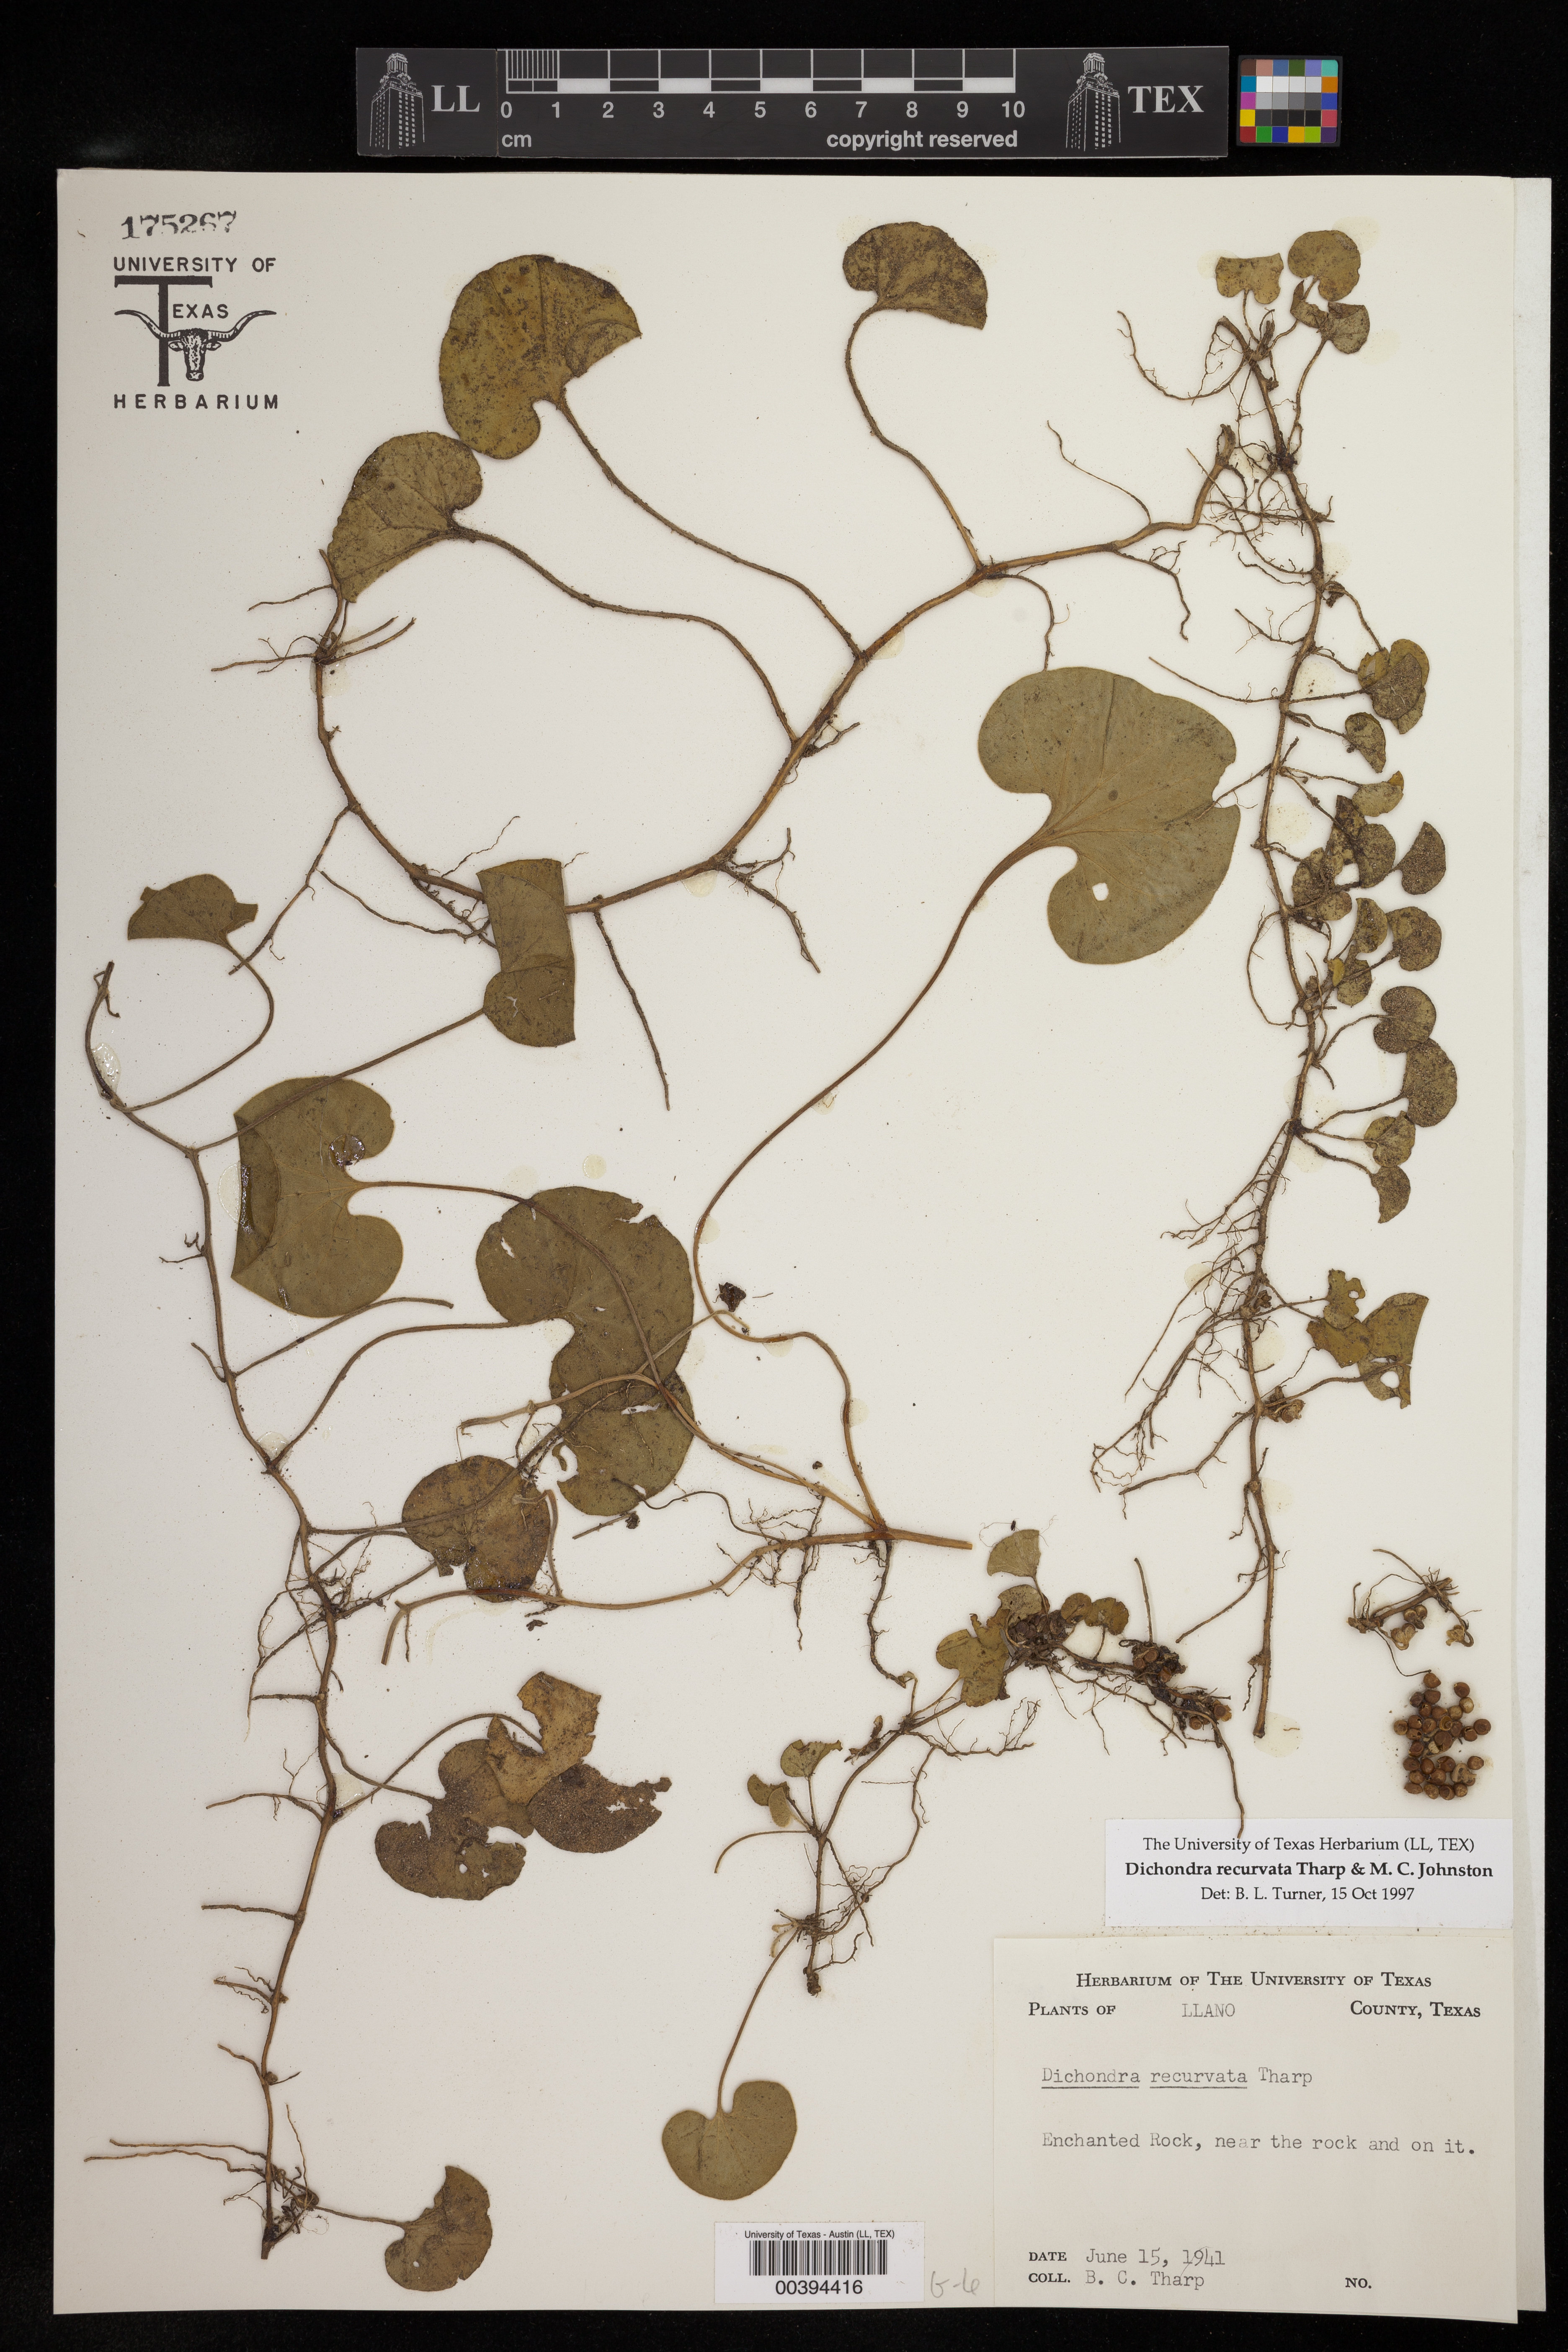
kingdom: Plantae
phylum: Tracheophyta
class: Magnoliopsida
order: Solanales
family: Convolvulaceae
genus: Dichondra
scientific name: Dichondra recurvata
